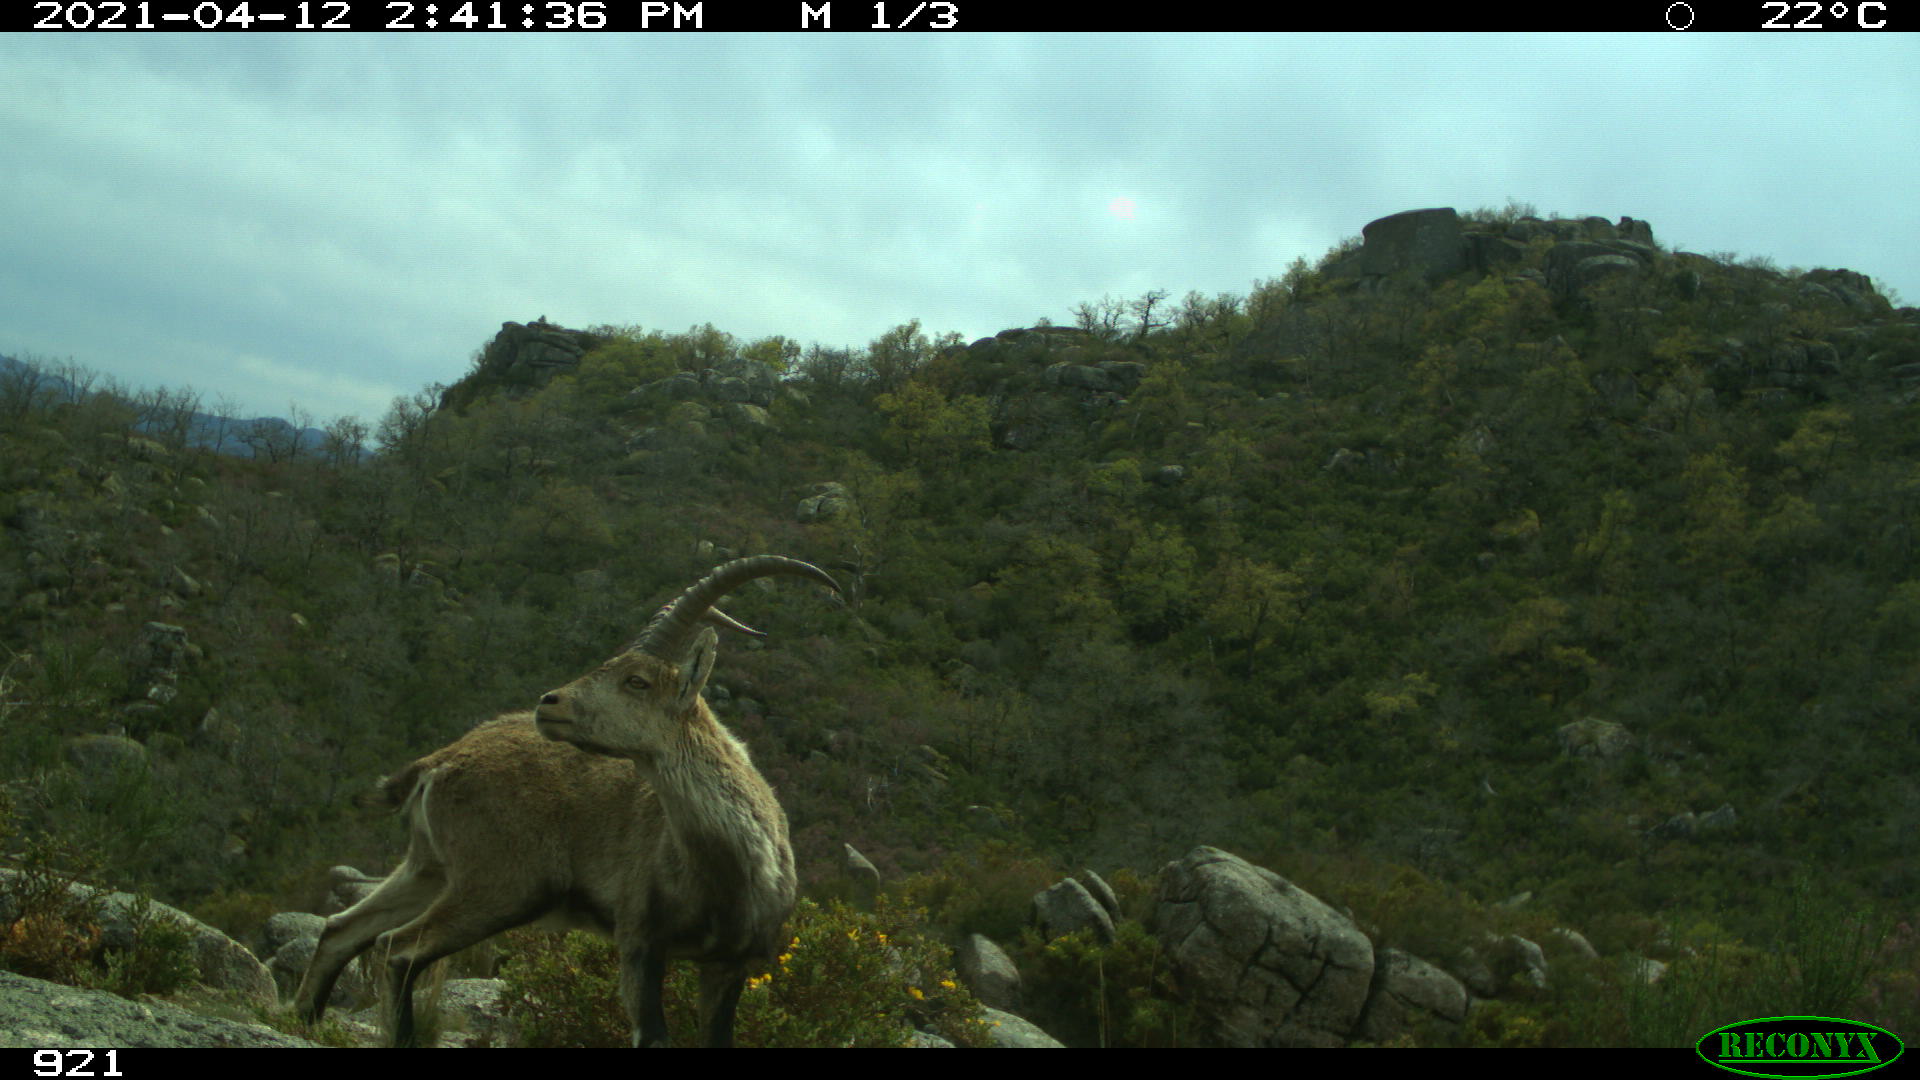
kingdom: Animalia
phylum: Chordata
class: Mammalia
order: Artiodactyla
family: Bovidae
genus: Capra
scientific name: Capra pyrenaica
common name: Spanish ibex
